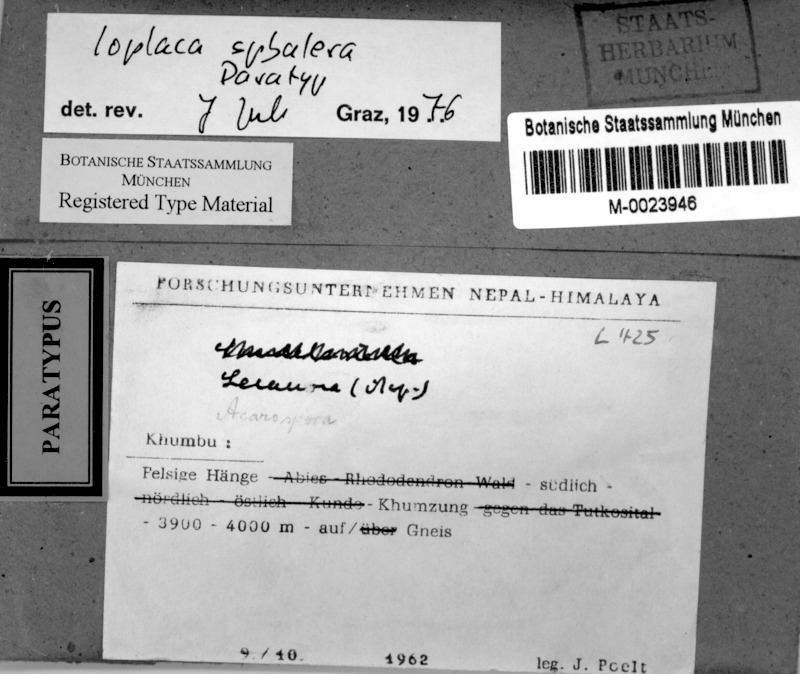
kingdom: Fungi
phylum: Ascomycota
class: Lecanoromycetes
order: Teloschistales
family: Teloschistaceae
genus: Ioplaca
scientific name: Ioplaca pindarensis
